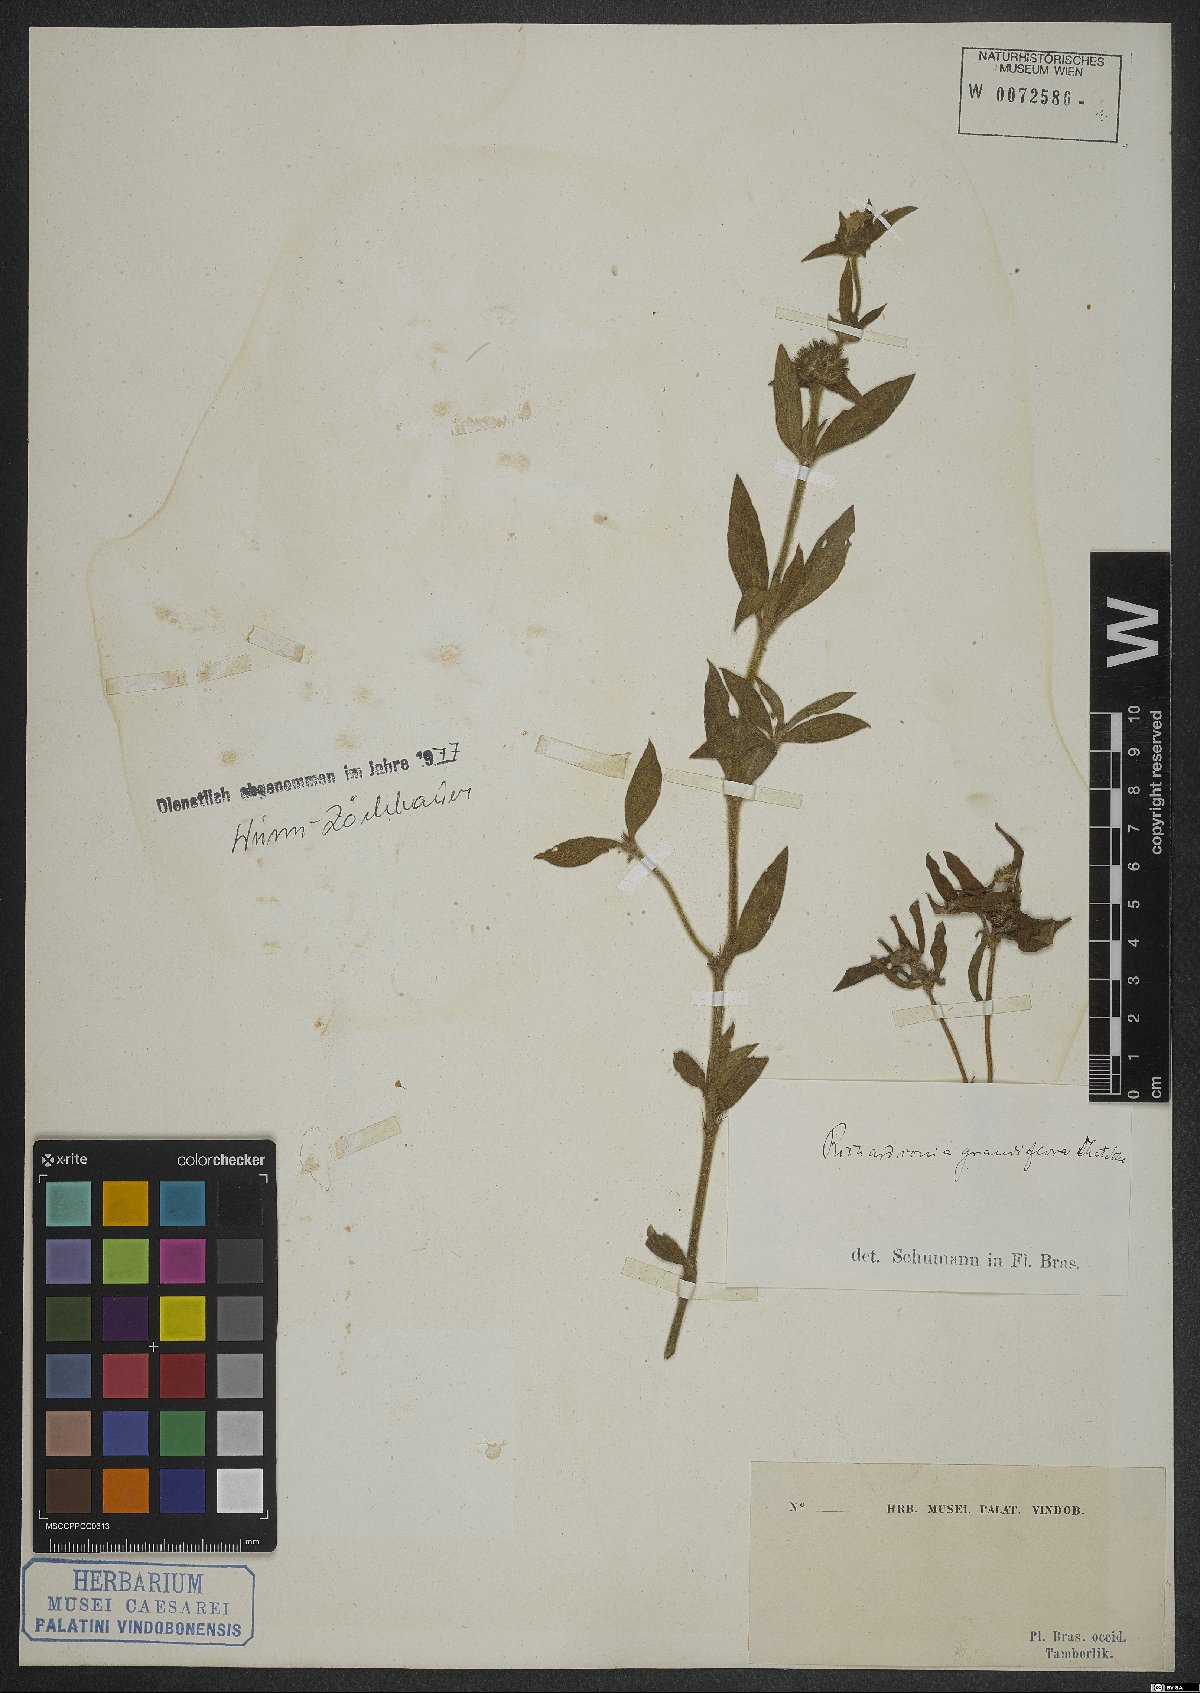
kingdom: Plantae
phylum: Tracheophyta
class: Magnoliopsida
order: Gentianales
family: Rubiaceae
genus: Richardia
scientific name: Richardia grandiflora
